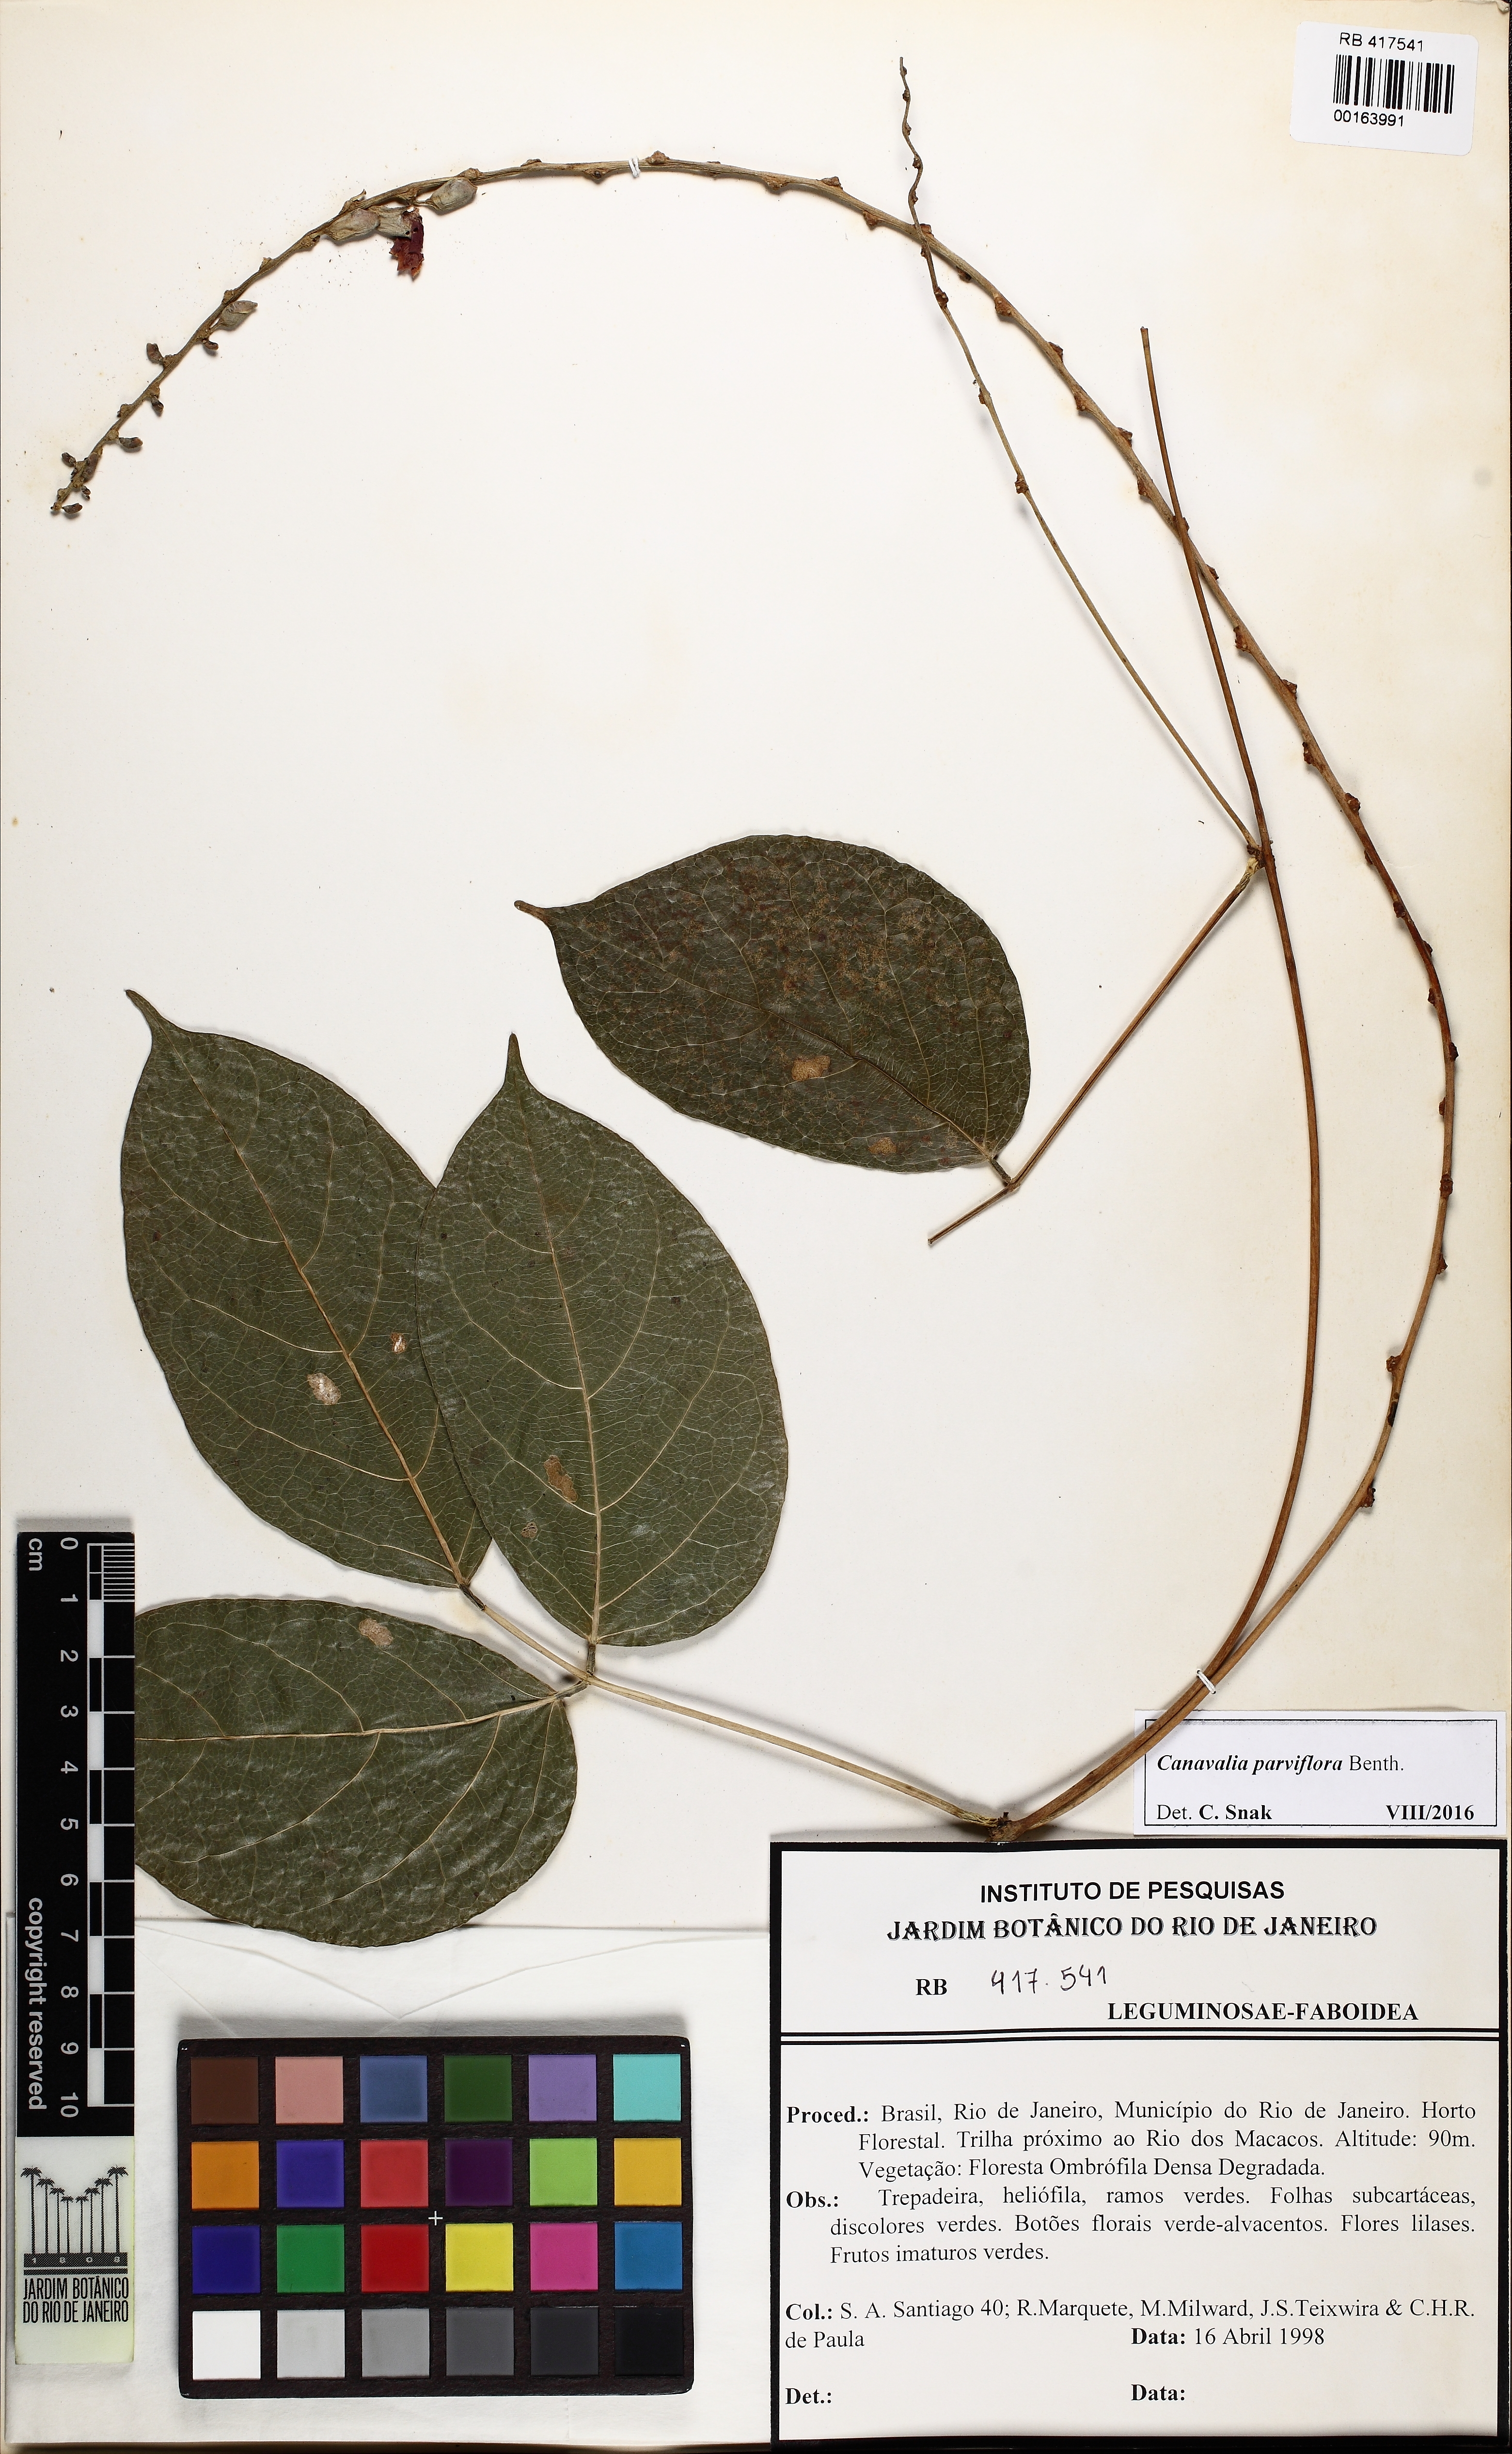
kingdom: Plantae
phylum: Tracheophyta
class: Magnoliopsida
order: Fabales
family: Fabaceae
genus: Canavalia
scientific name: Canavalia parviflora
